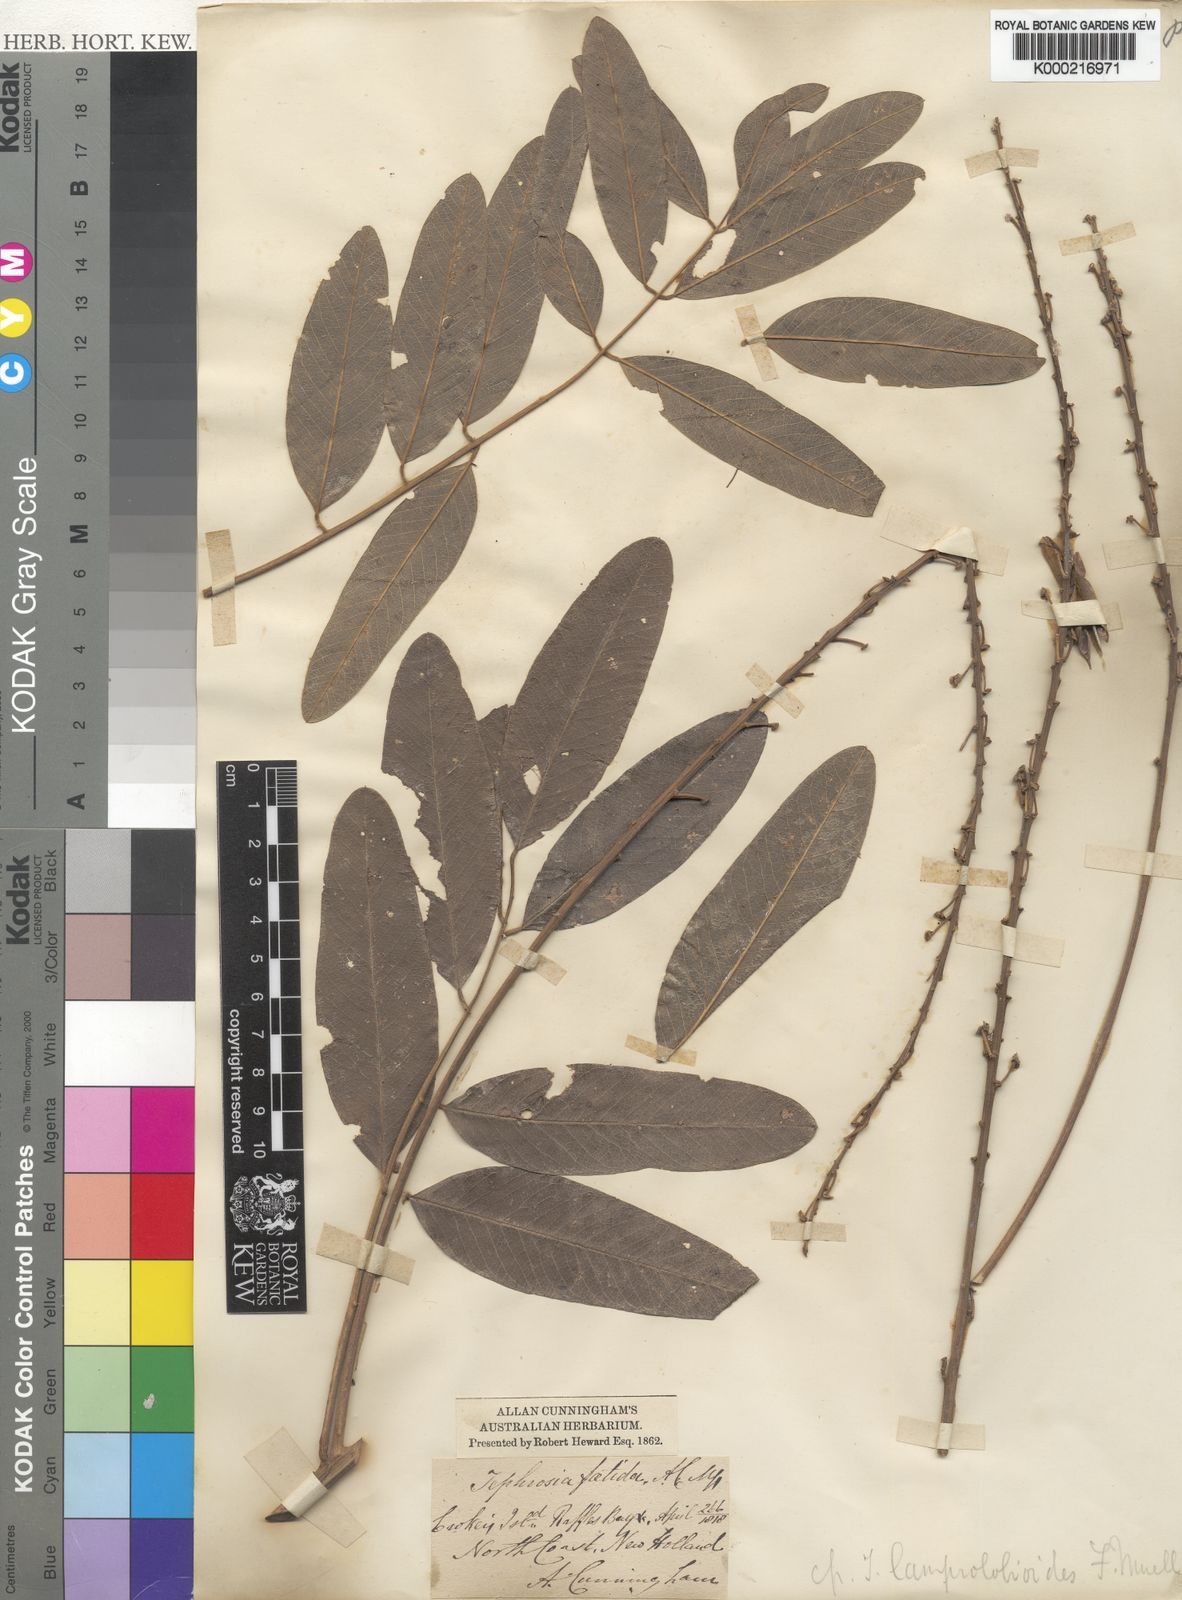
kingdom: Plantae
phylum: Tracheophyta
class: Magnoliopsida
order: Fabales
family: Fabaceae
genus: Tephrosia
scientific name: Tephrosia lamprolobioides
